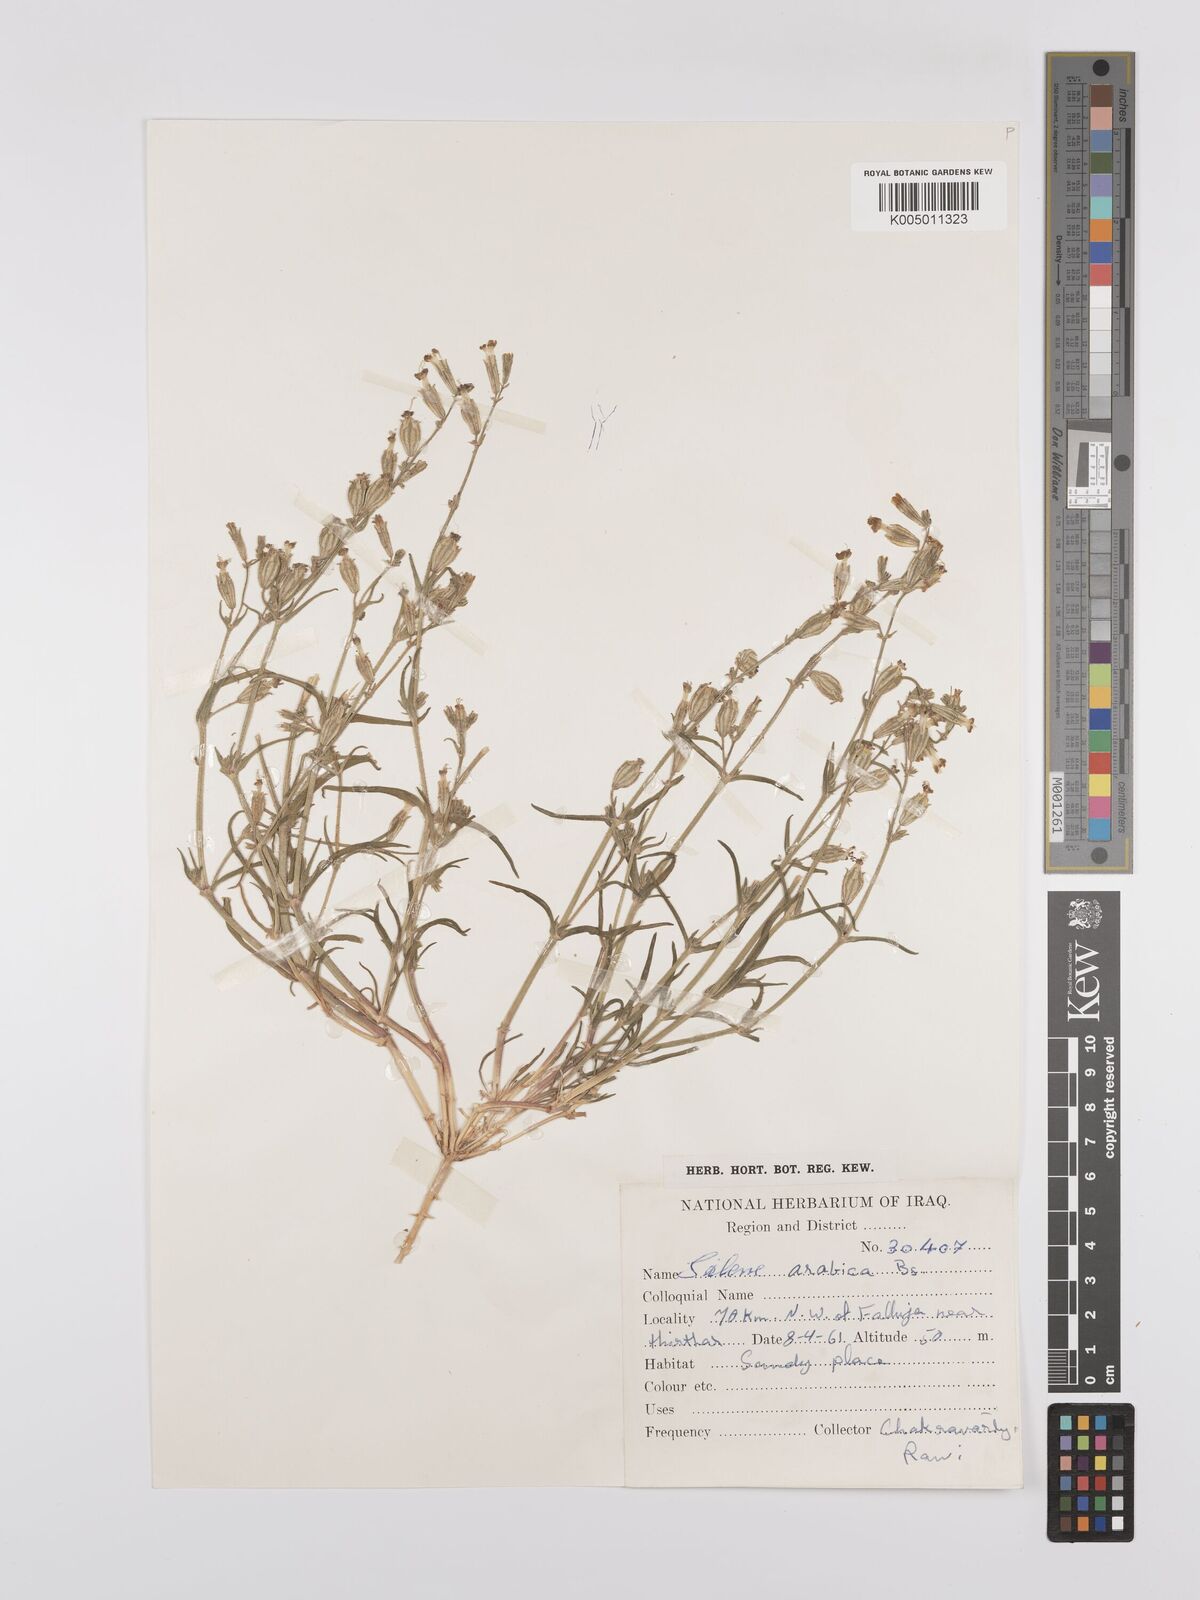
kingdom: Plantae
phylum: Tracheophyta
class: Magnoliopsida
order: Caryophyllales
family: Caryophyllaceae
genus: Silene
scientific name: Silene arabica
